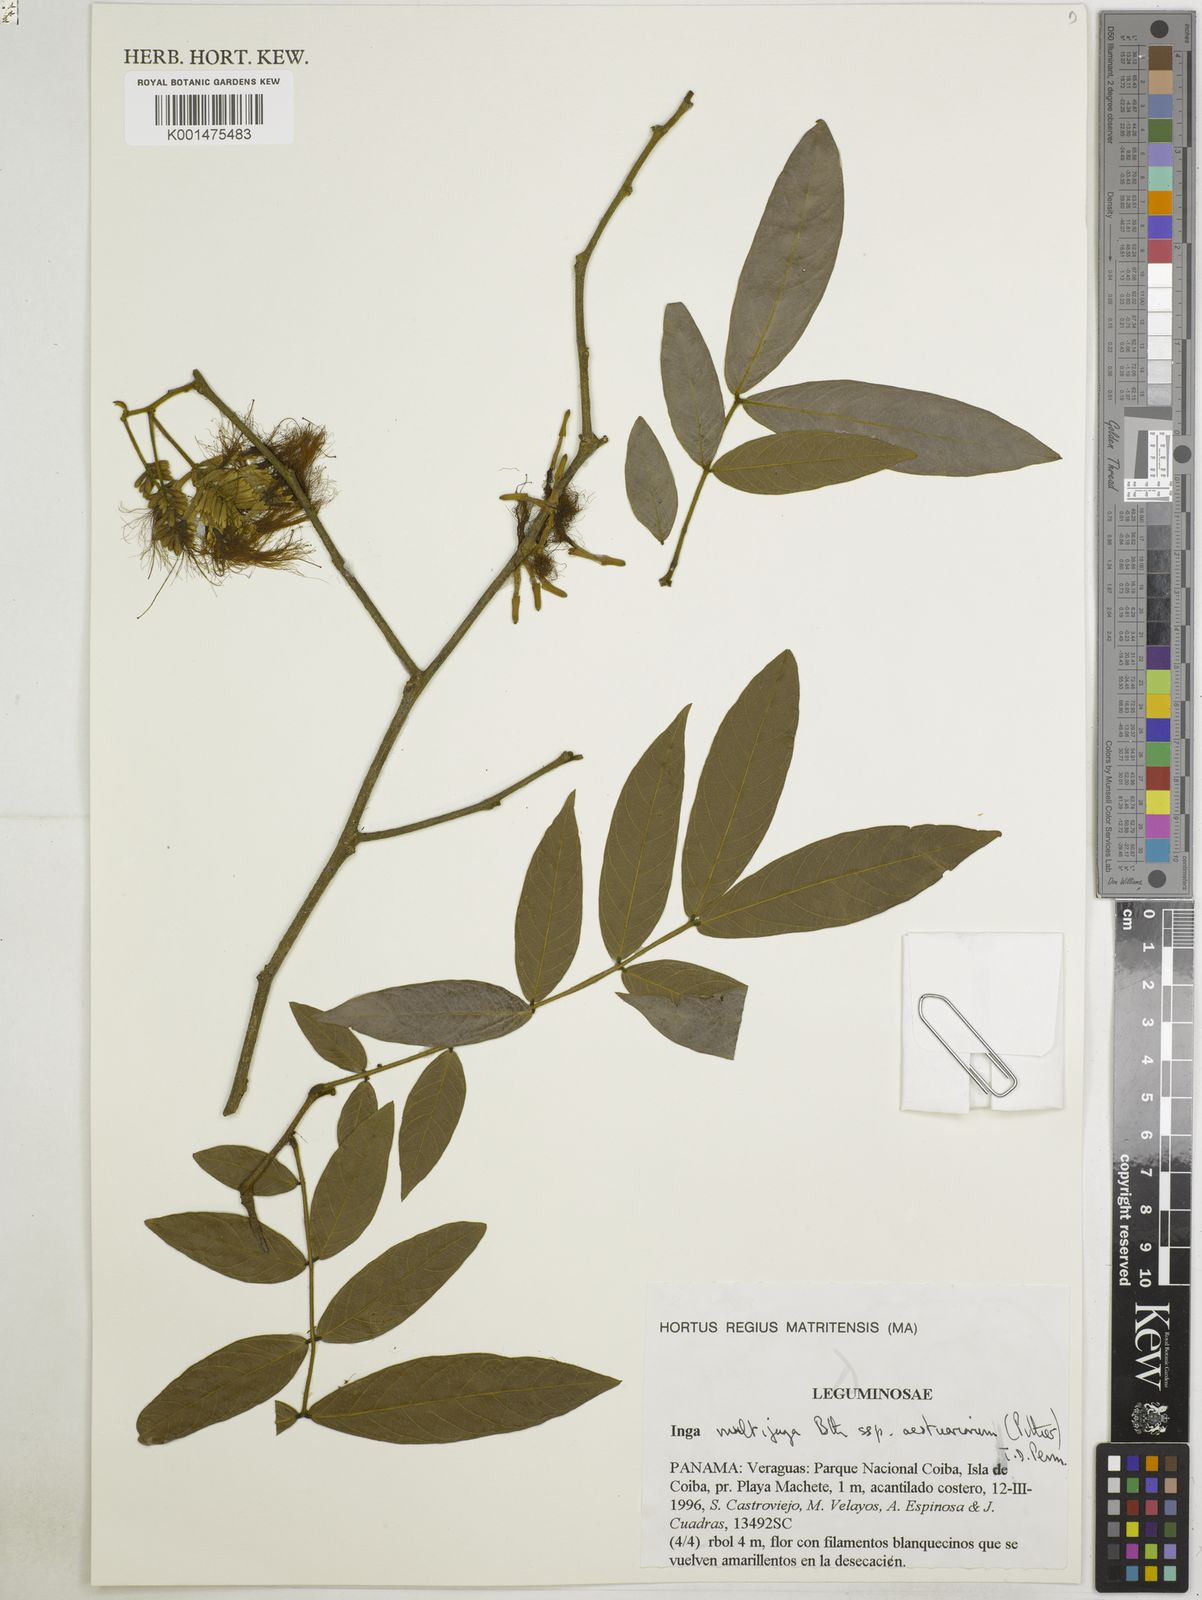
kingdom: Plantae
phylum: Tracheophyta
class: Magnoliopsida
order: Fabales
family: Fabaceae
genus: Inga
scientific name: Inga multijuga
